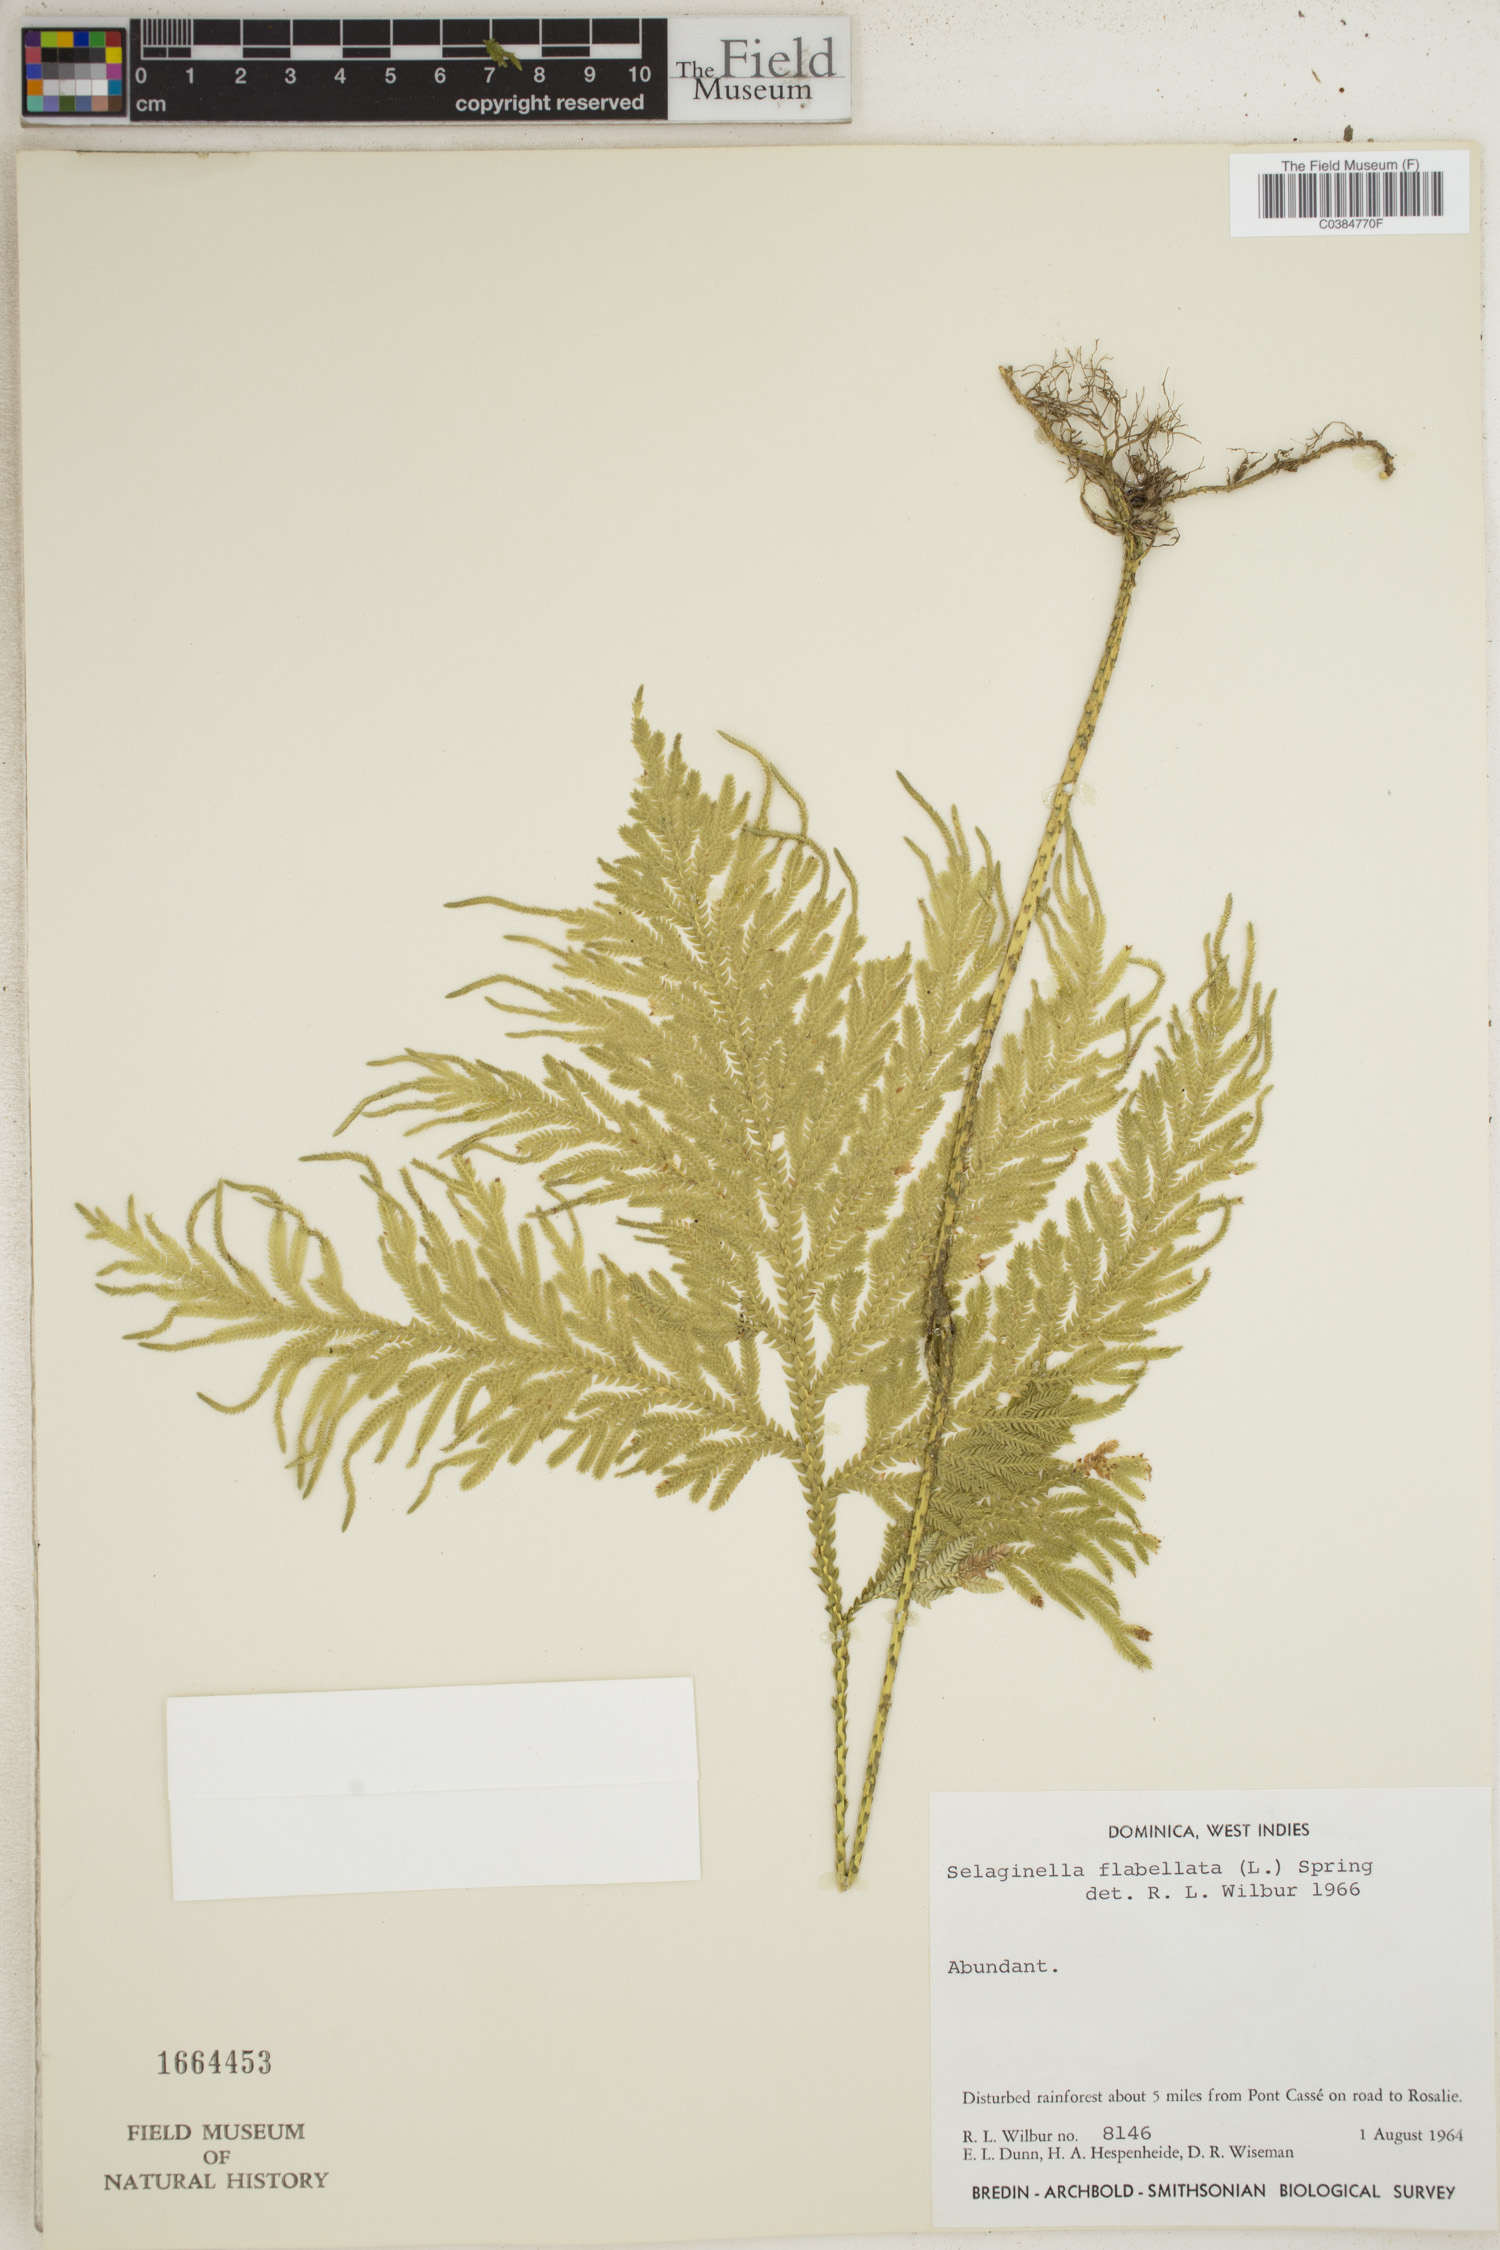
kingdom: Plantae
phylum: Tracheophyta
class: Lycopodiopsida
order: Selaginellales
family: Selaginellaceae
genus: Selaginella
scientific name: Selaginella flabellata
